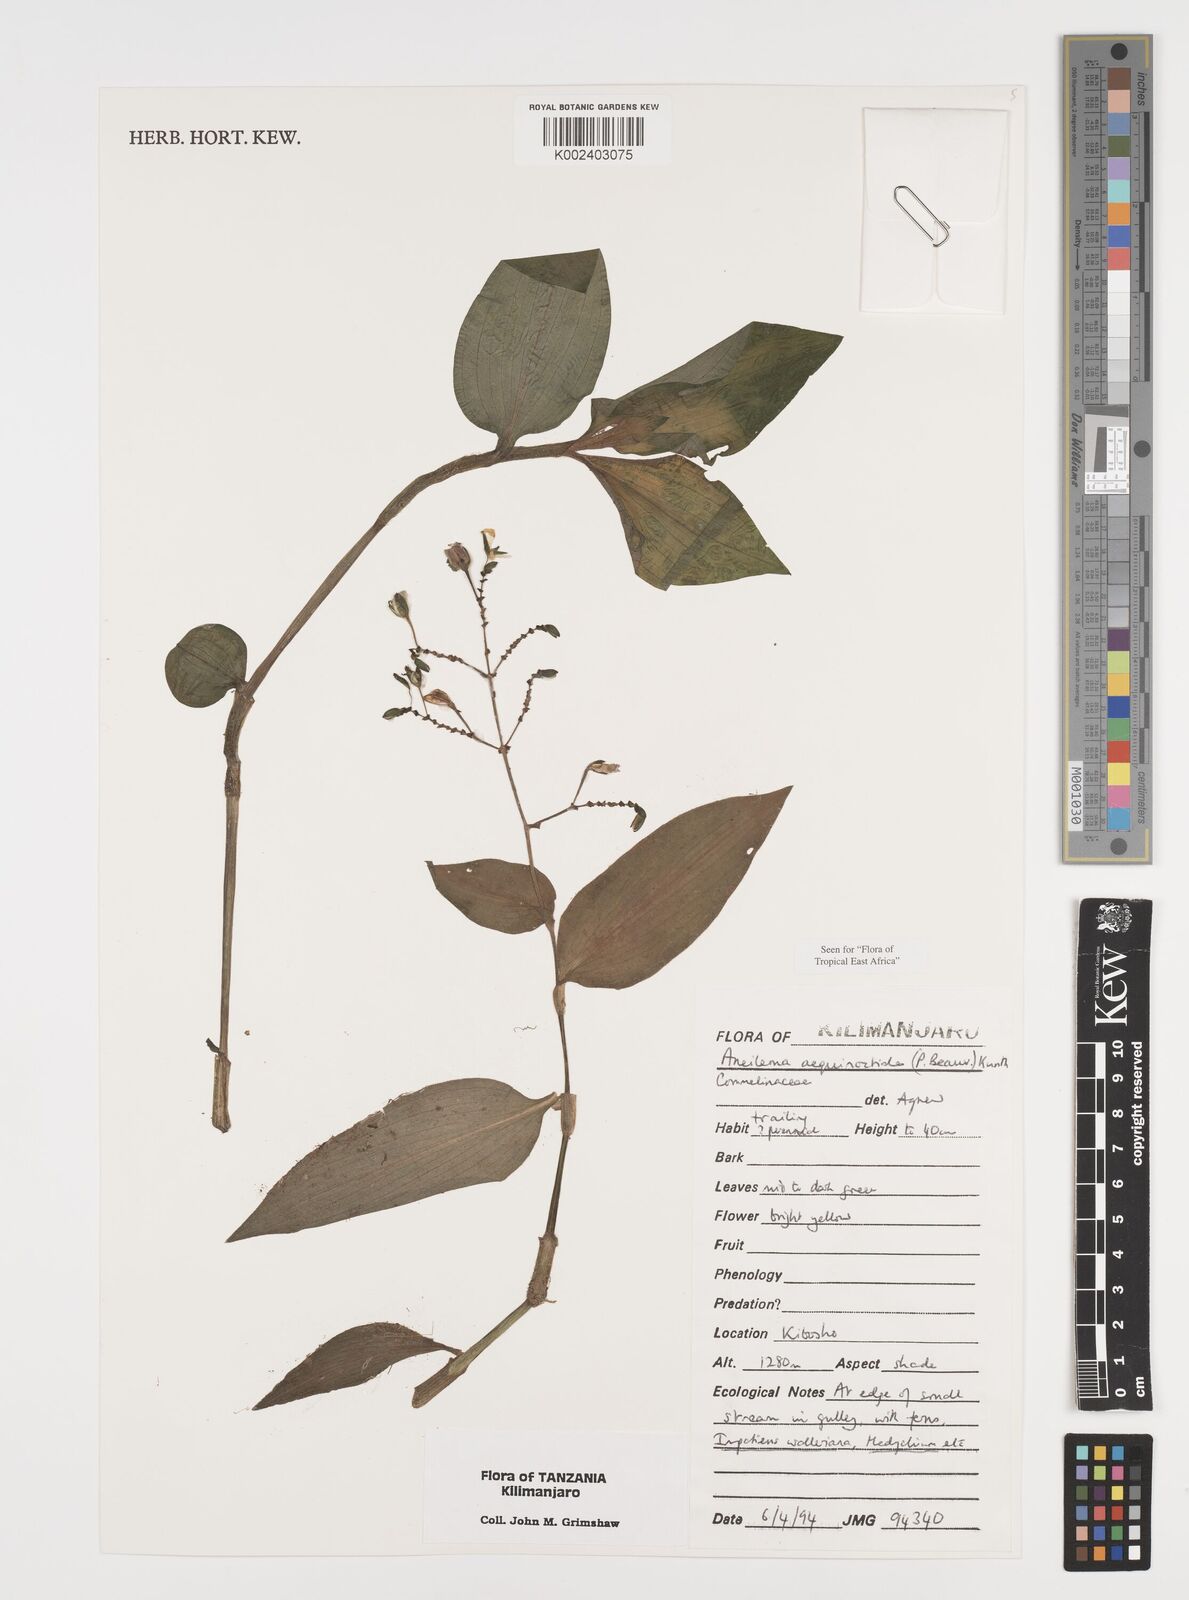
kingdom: Plantae
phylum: Tracheophyta
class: Liliopsida
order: Commelinales
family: Commelinaceae
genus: Aneilema
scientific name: Aneilema aequinoctiale
